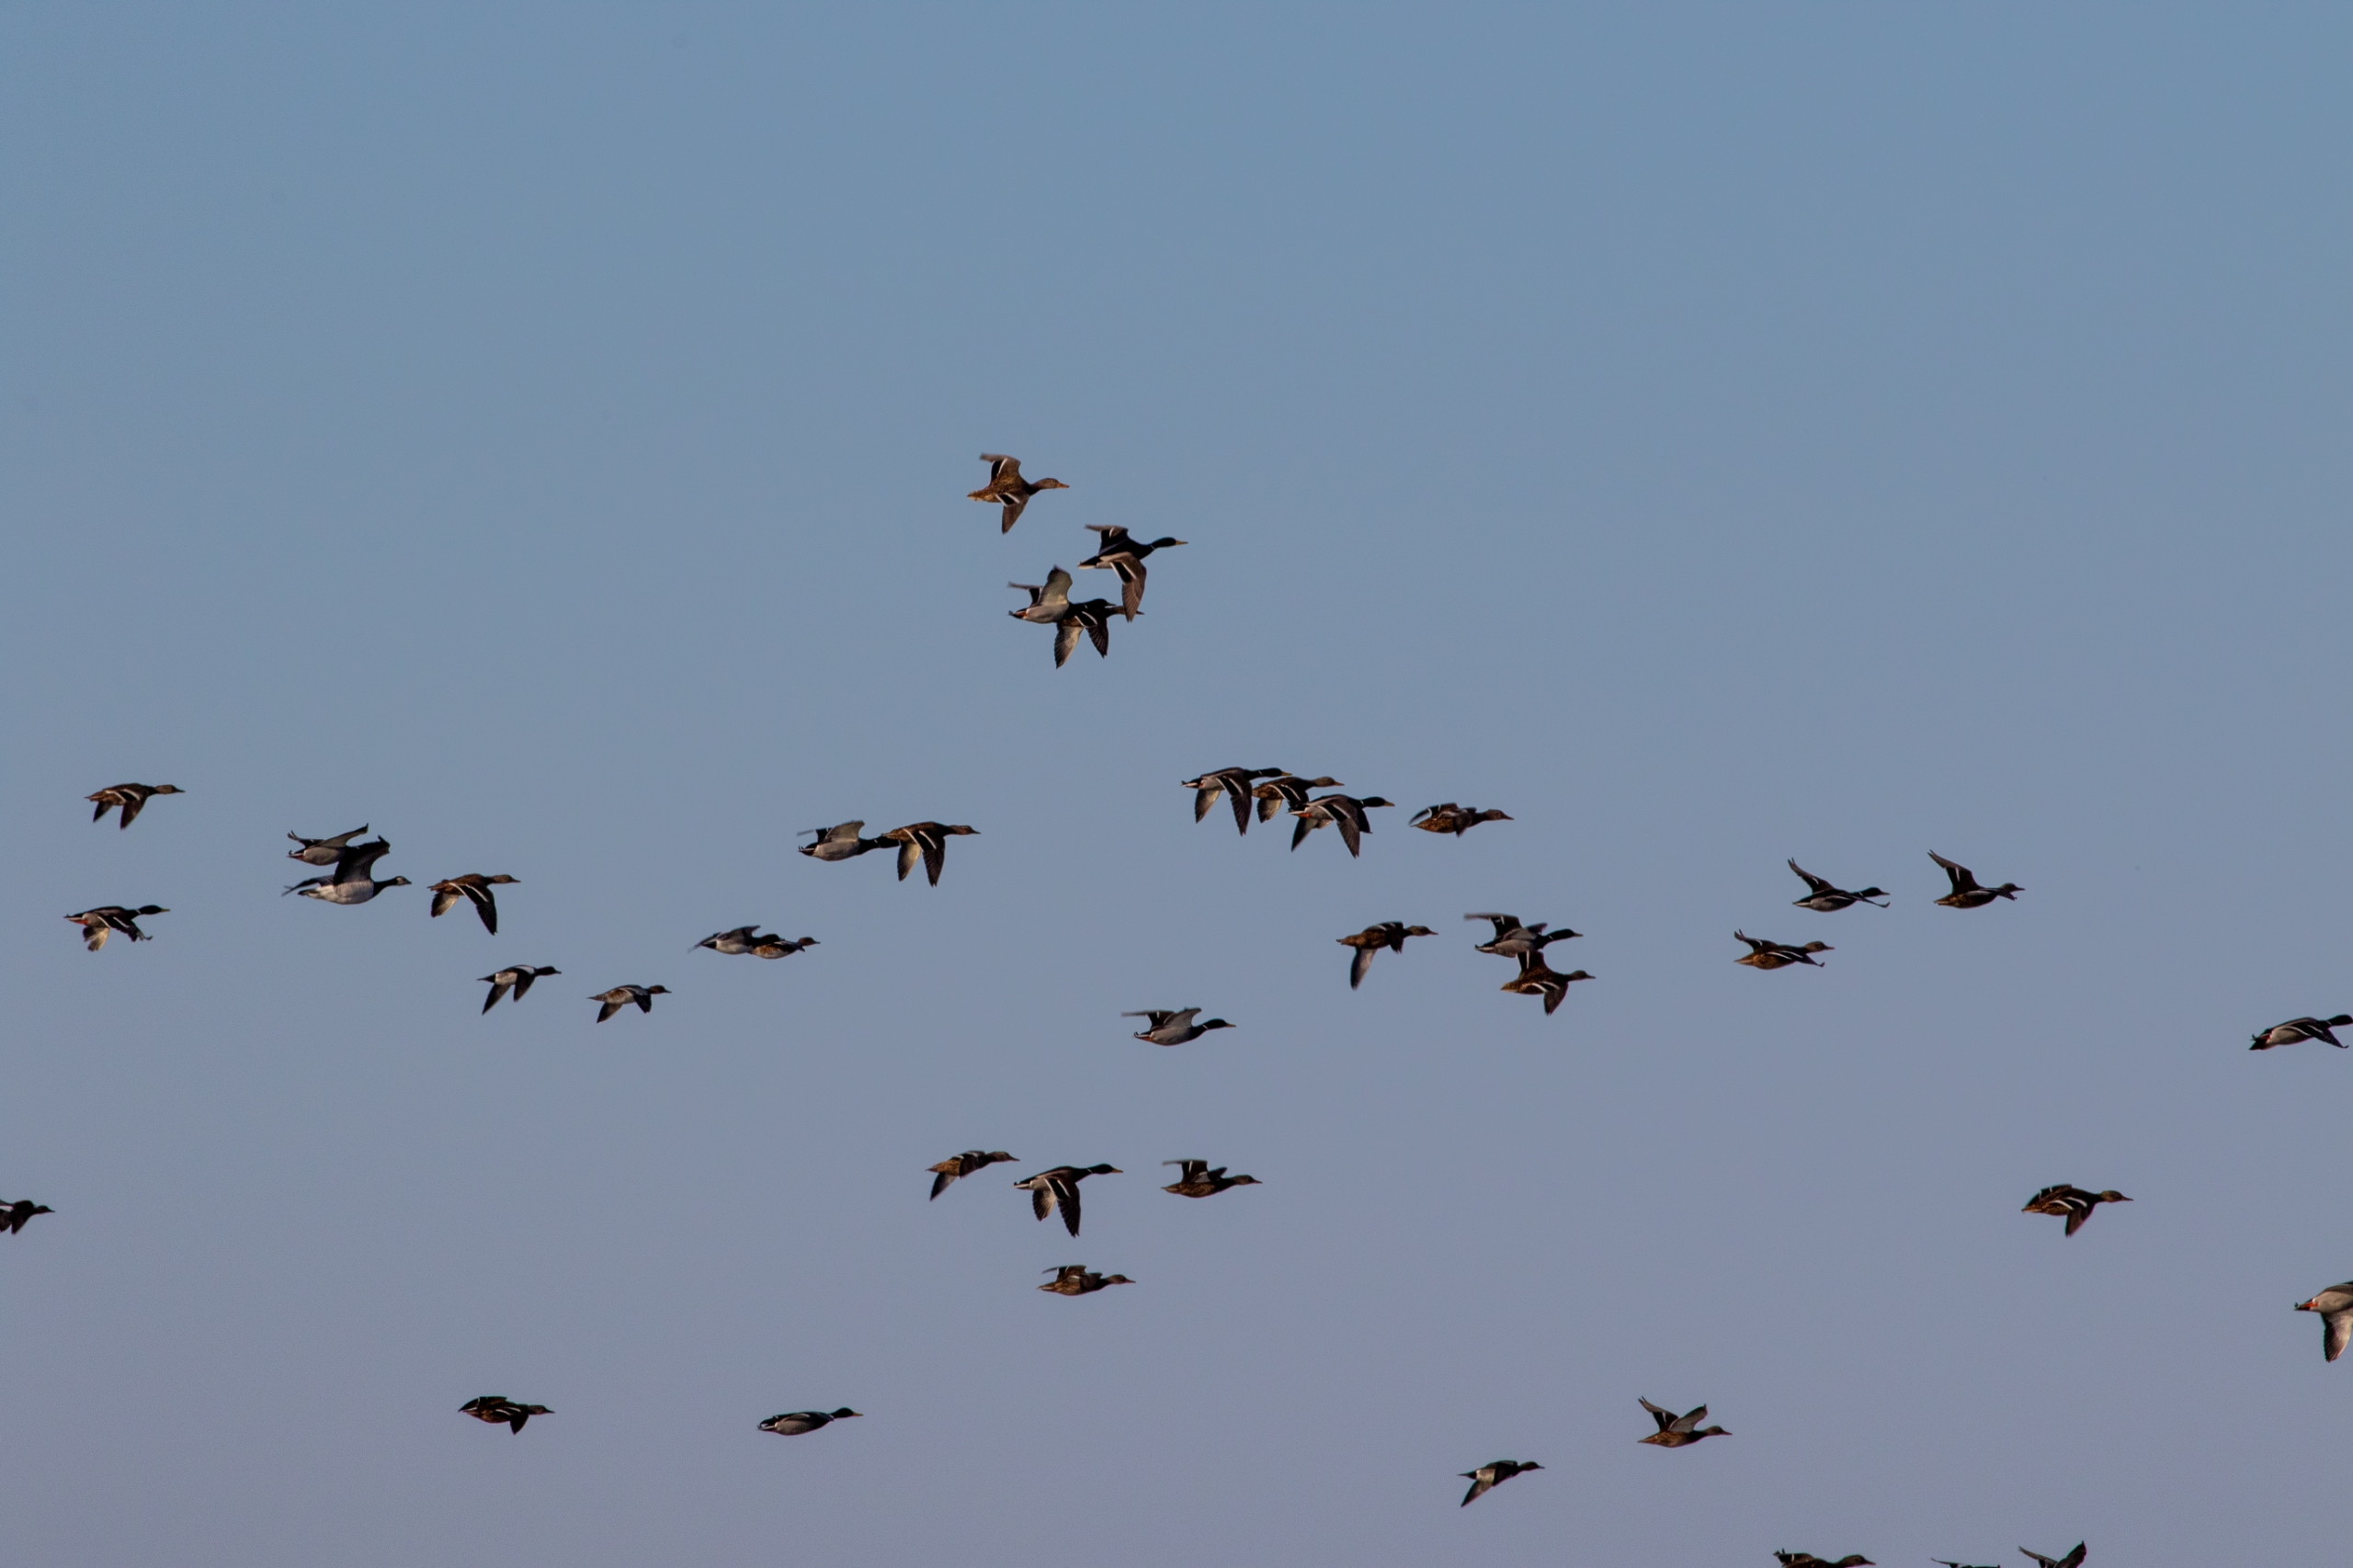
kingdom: Animalia
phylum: Chordata
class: Aves
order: Anseriformes
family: Anatidae
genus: Anas
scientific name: Anas platyrhynchos
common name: Gråand
